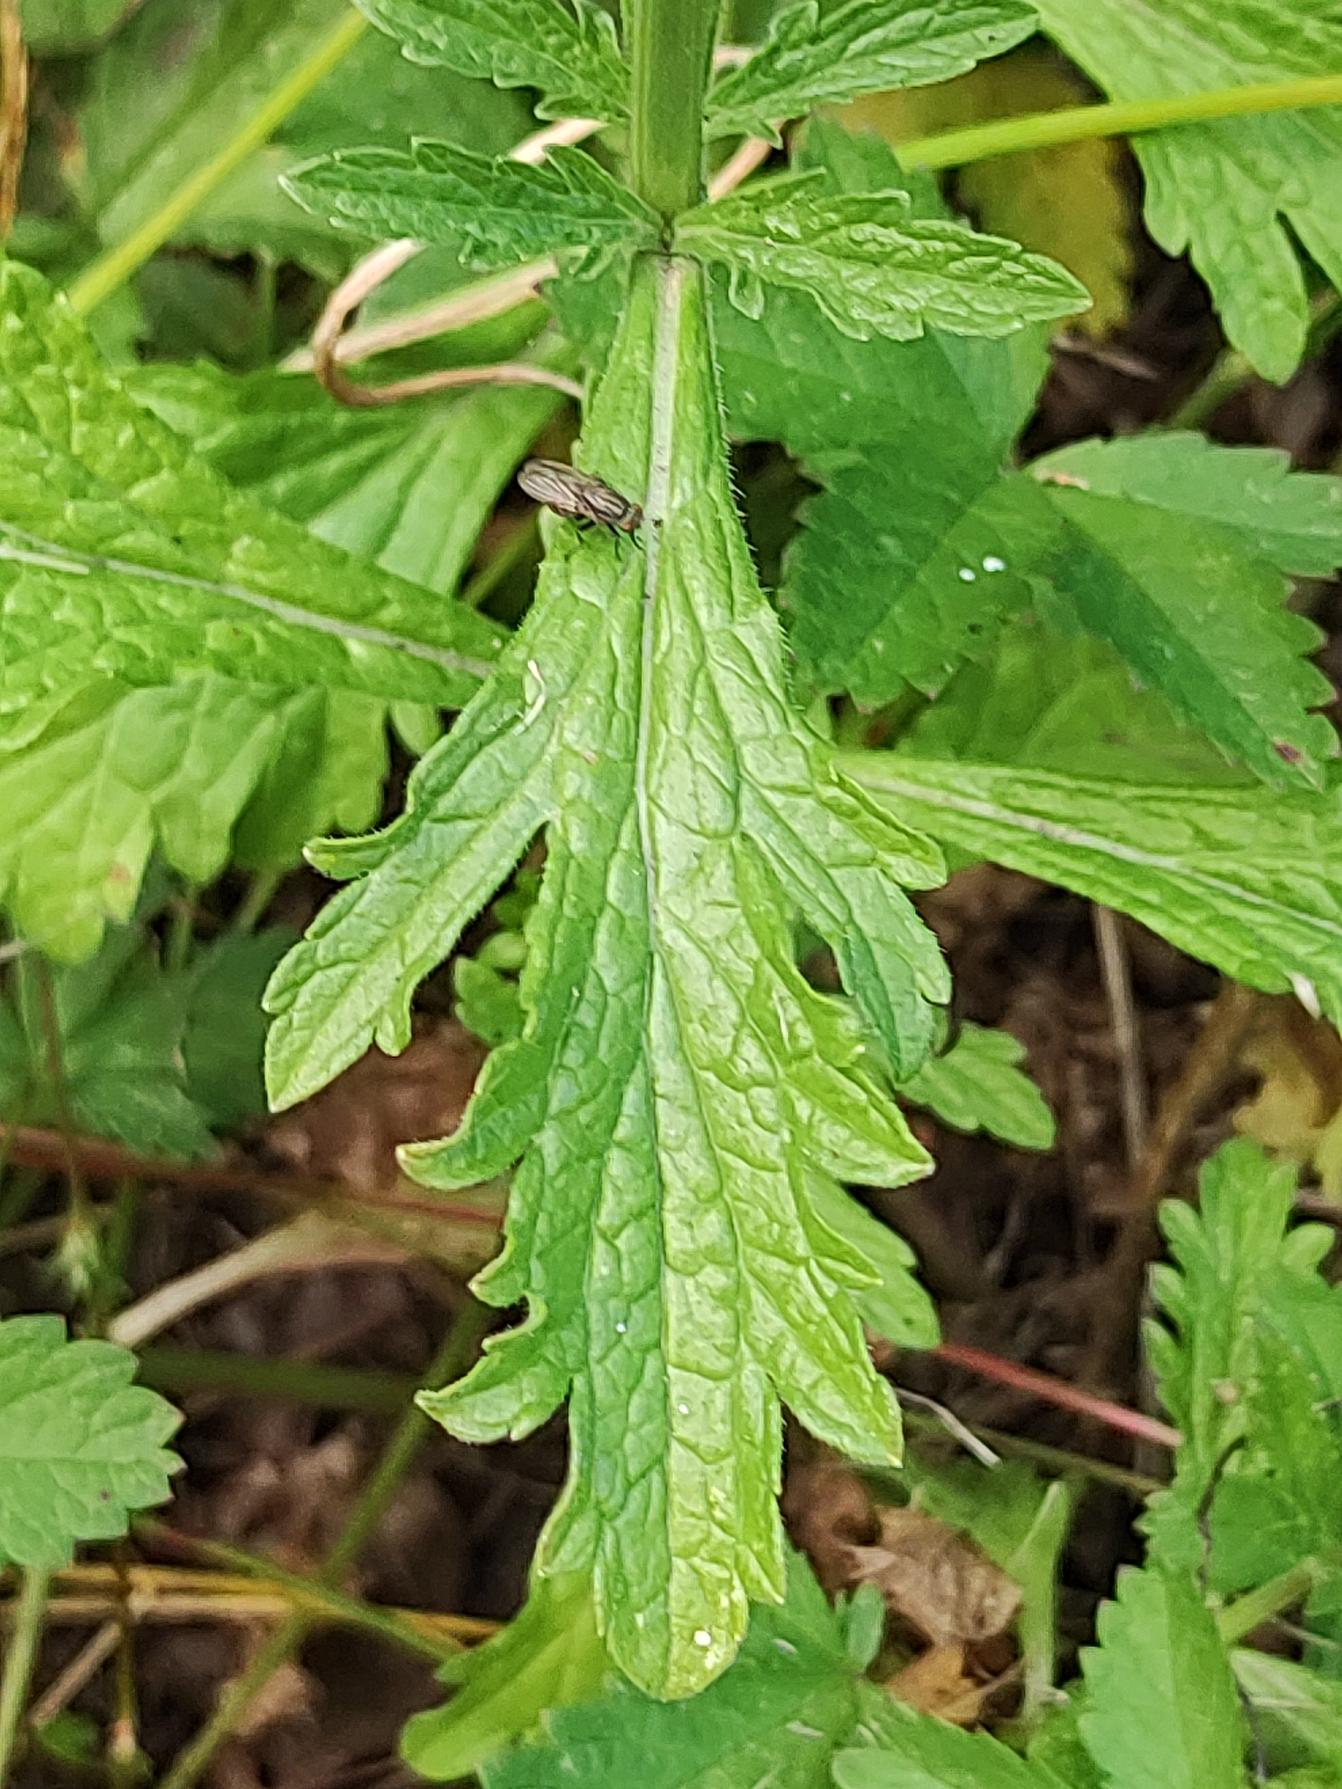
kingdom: Plantae
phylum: Tracheophyta
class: Magnoliopsida
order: Lamiales
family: Verbenaceae
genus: Verbena
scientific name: Verbena officinalis
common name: Læge-jernurt
